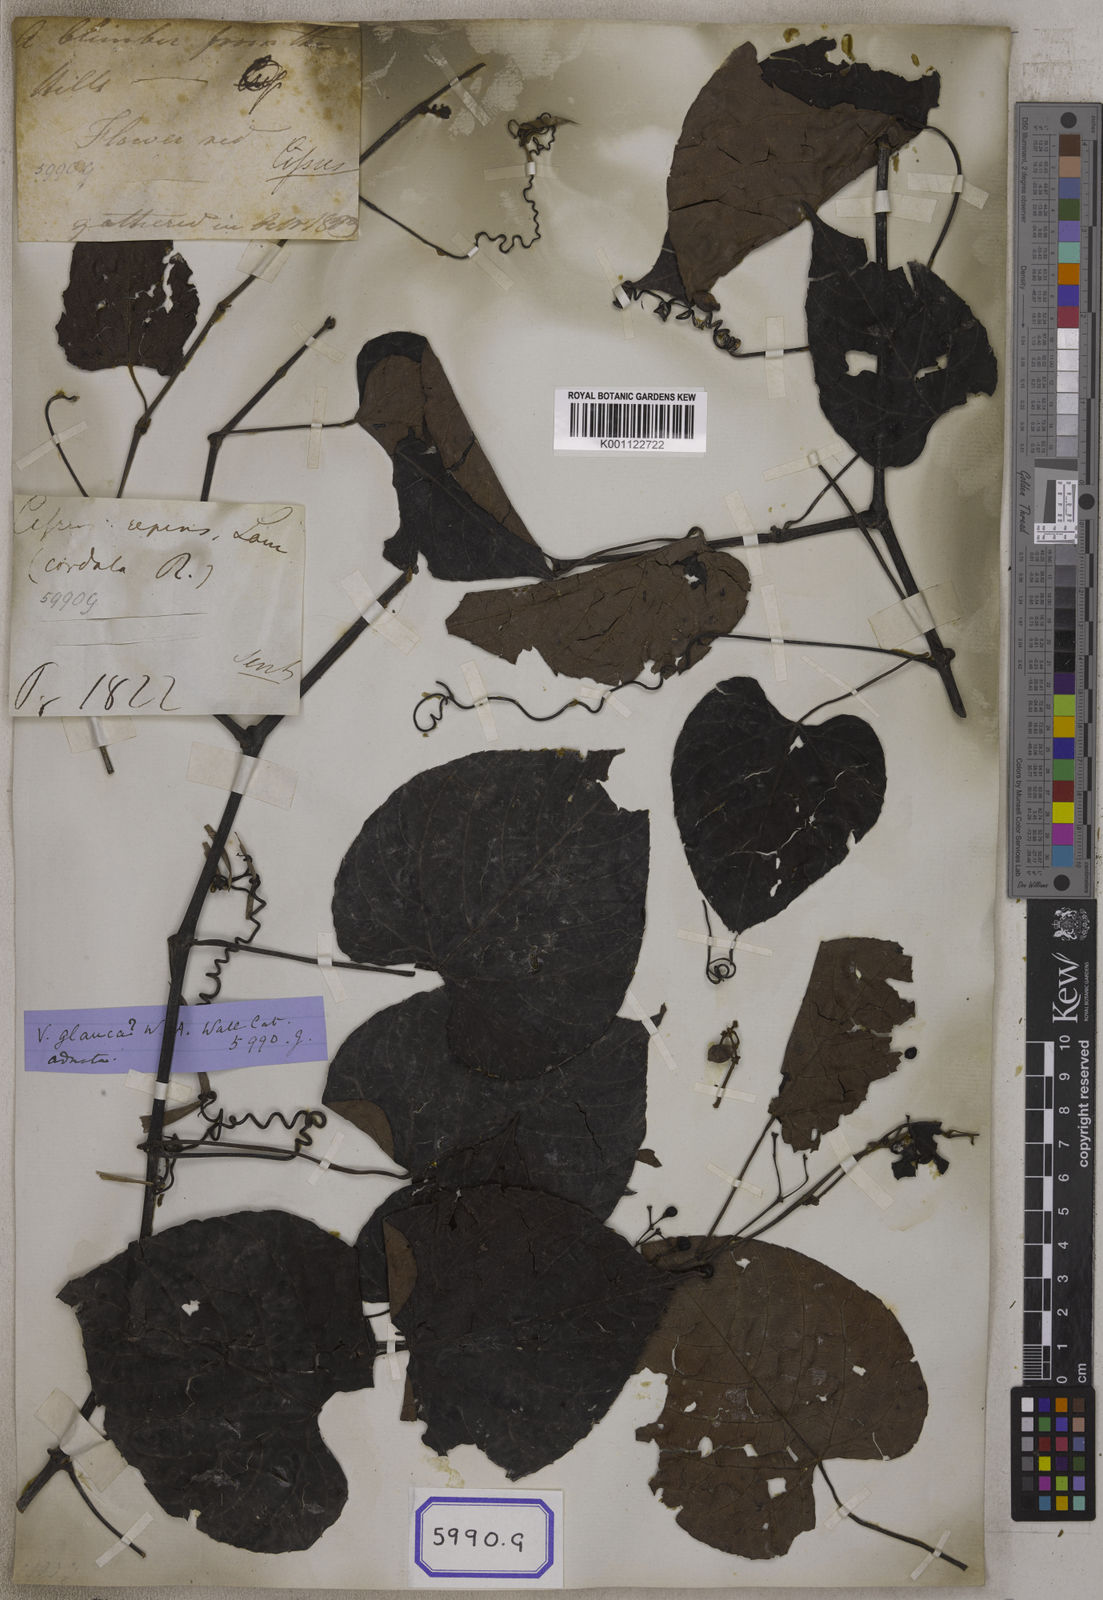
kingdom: Plantae
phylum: Tracheophyta
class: Magnoliopsida
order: Vitales
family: Vitaceae
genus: Cissus
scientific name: Cissus repens
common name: Cissus
